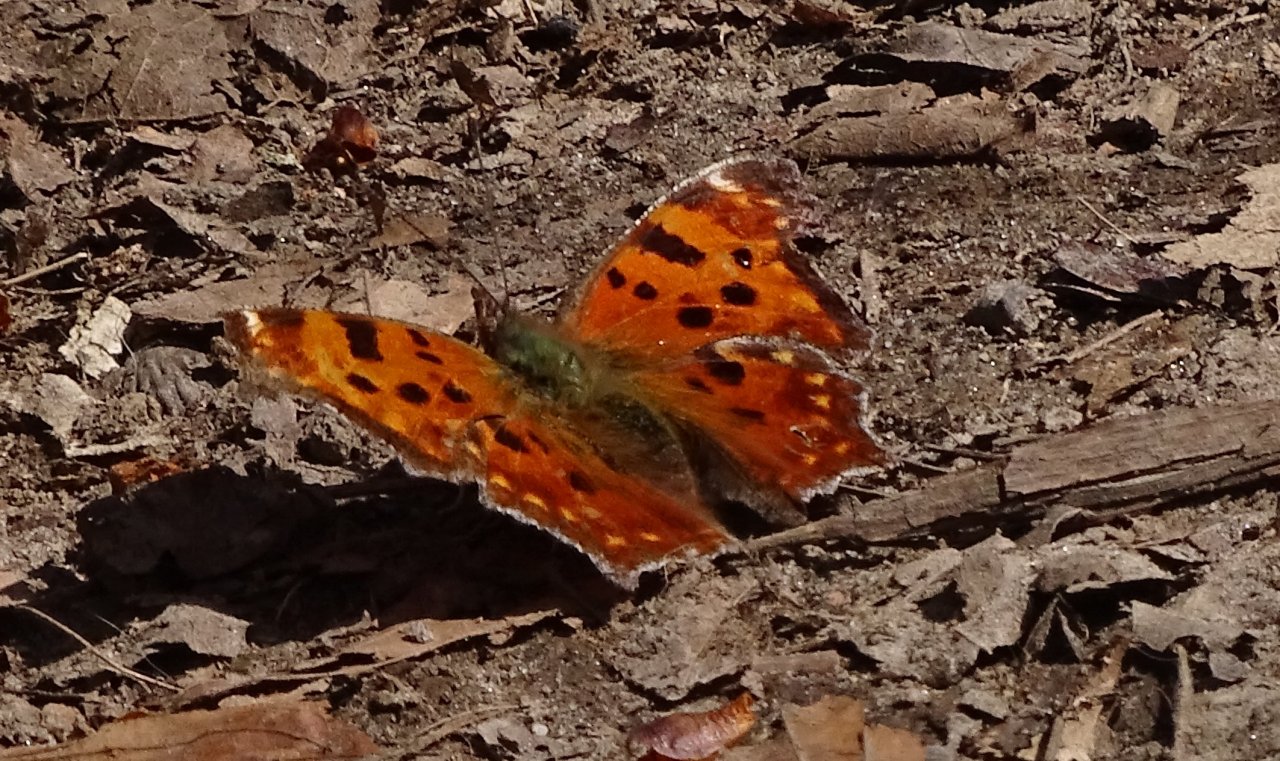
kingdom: Animalia
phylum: Arthropoda
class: Insecta
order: Lepidoptera
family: Nymphalidae
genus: Polygonia
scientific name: Polygonia comma
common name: Eastern Comma
